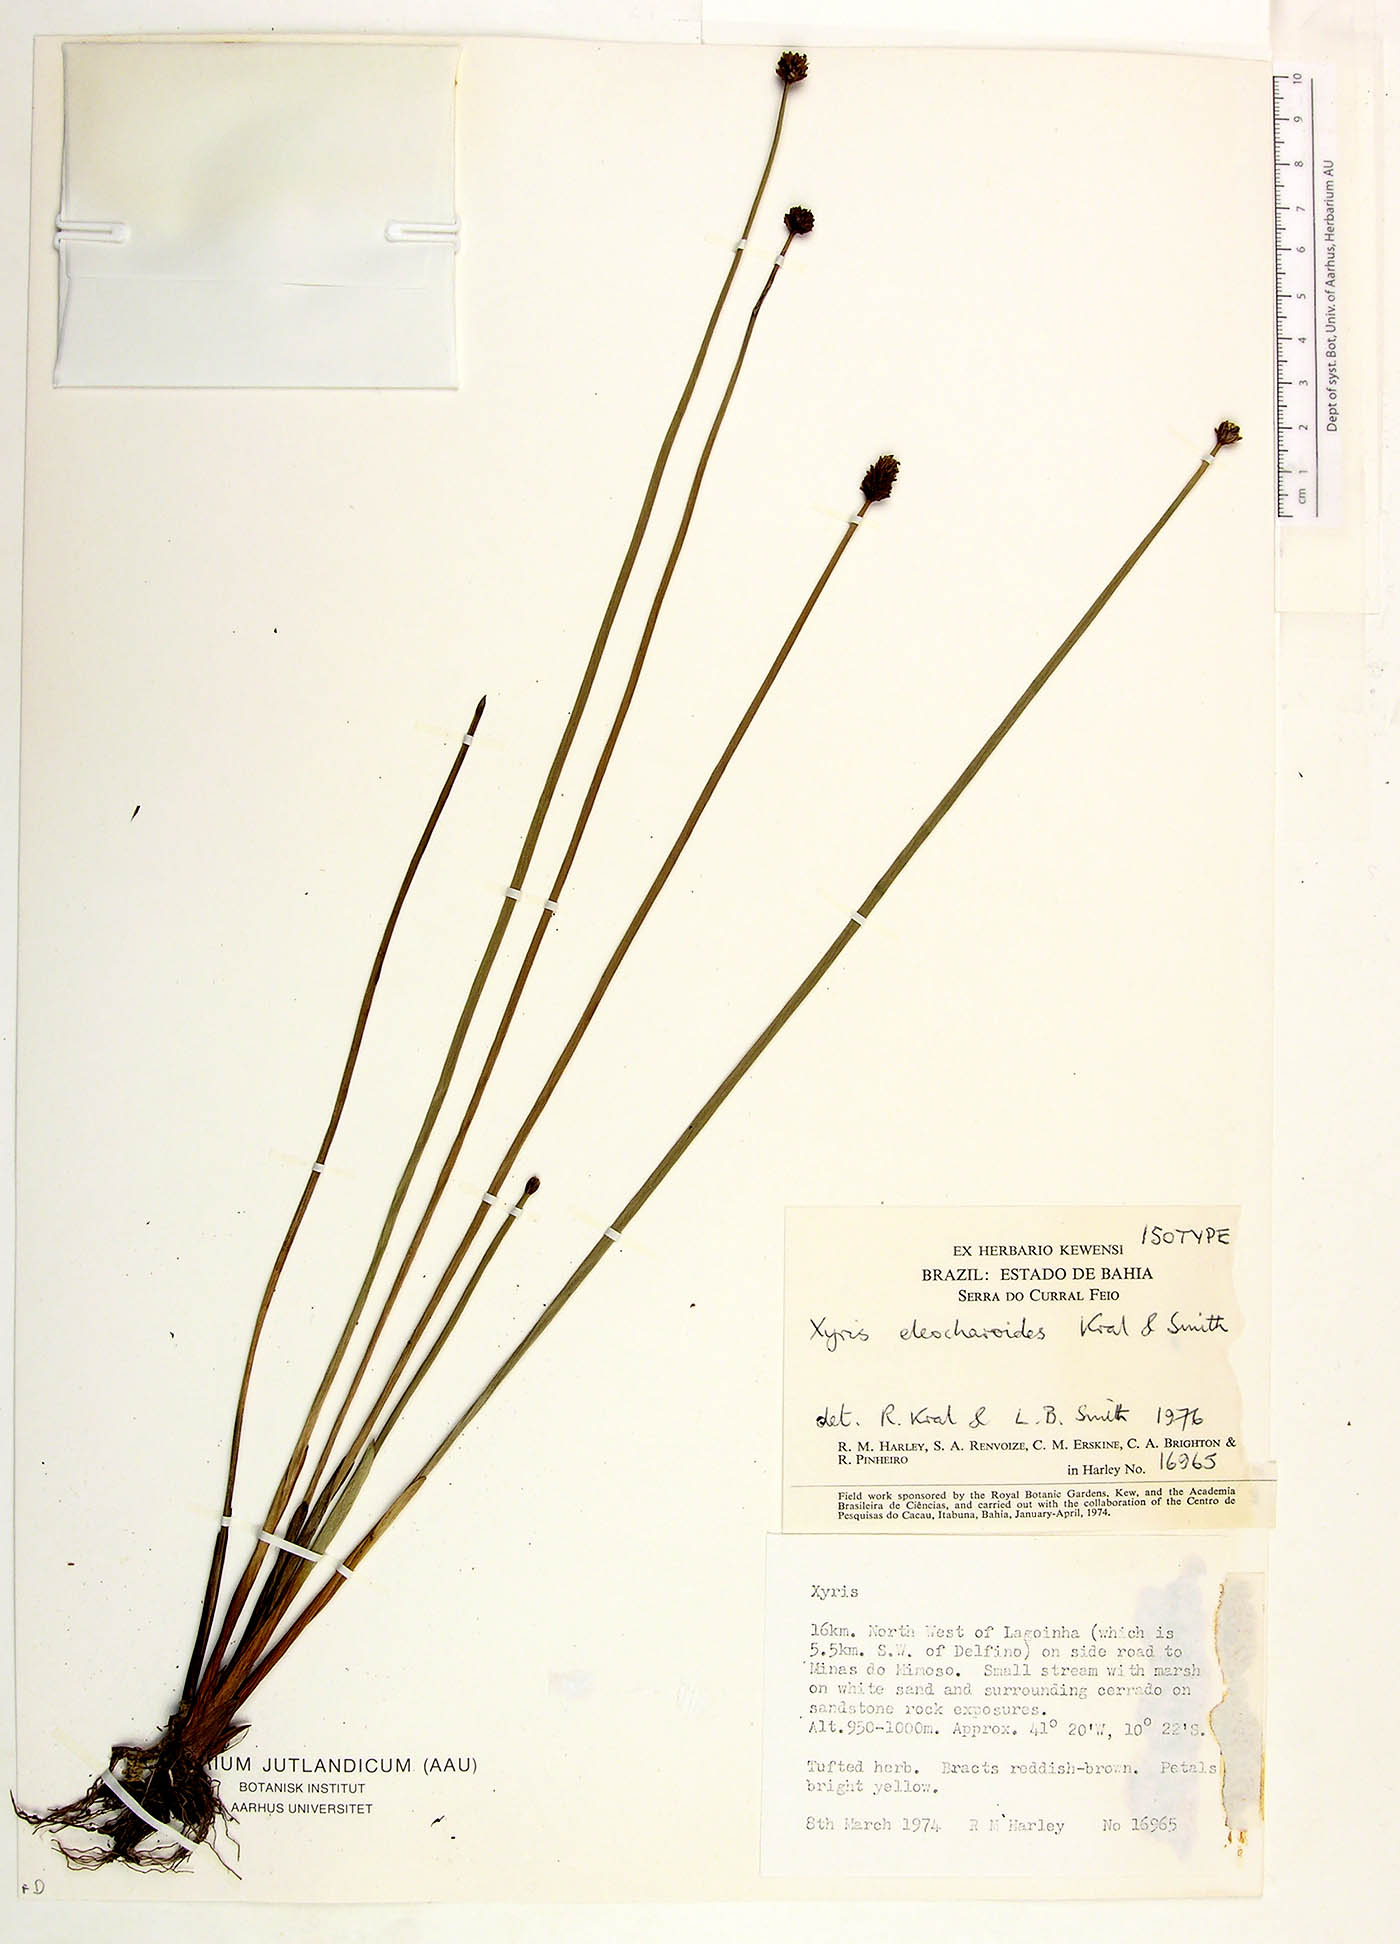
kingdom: Plantae
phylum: Tracheophyta
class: Liliopsida
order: Poales
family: Xyridaceae
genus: Xyris
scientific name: Xyris eleocharoides
